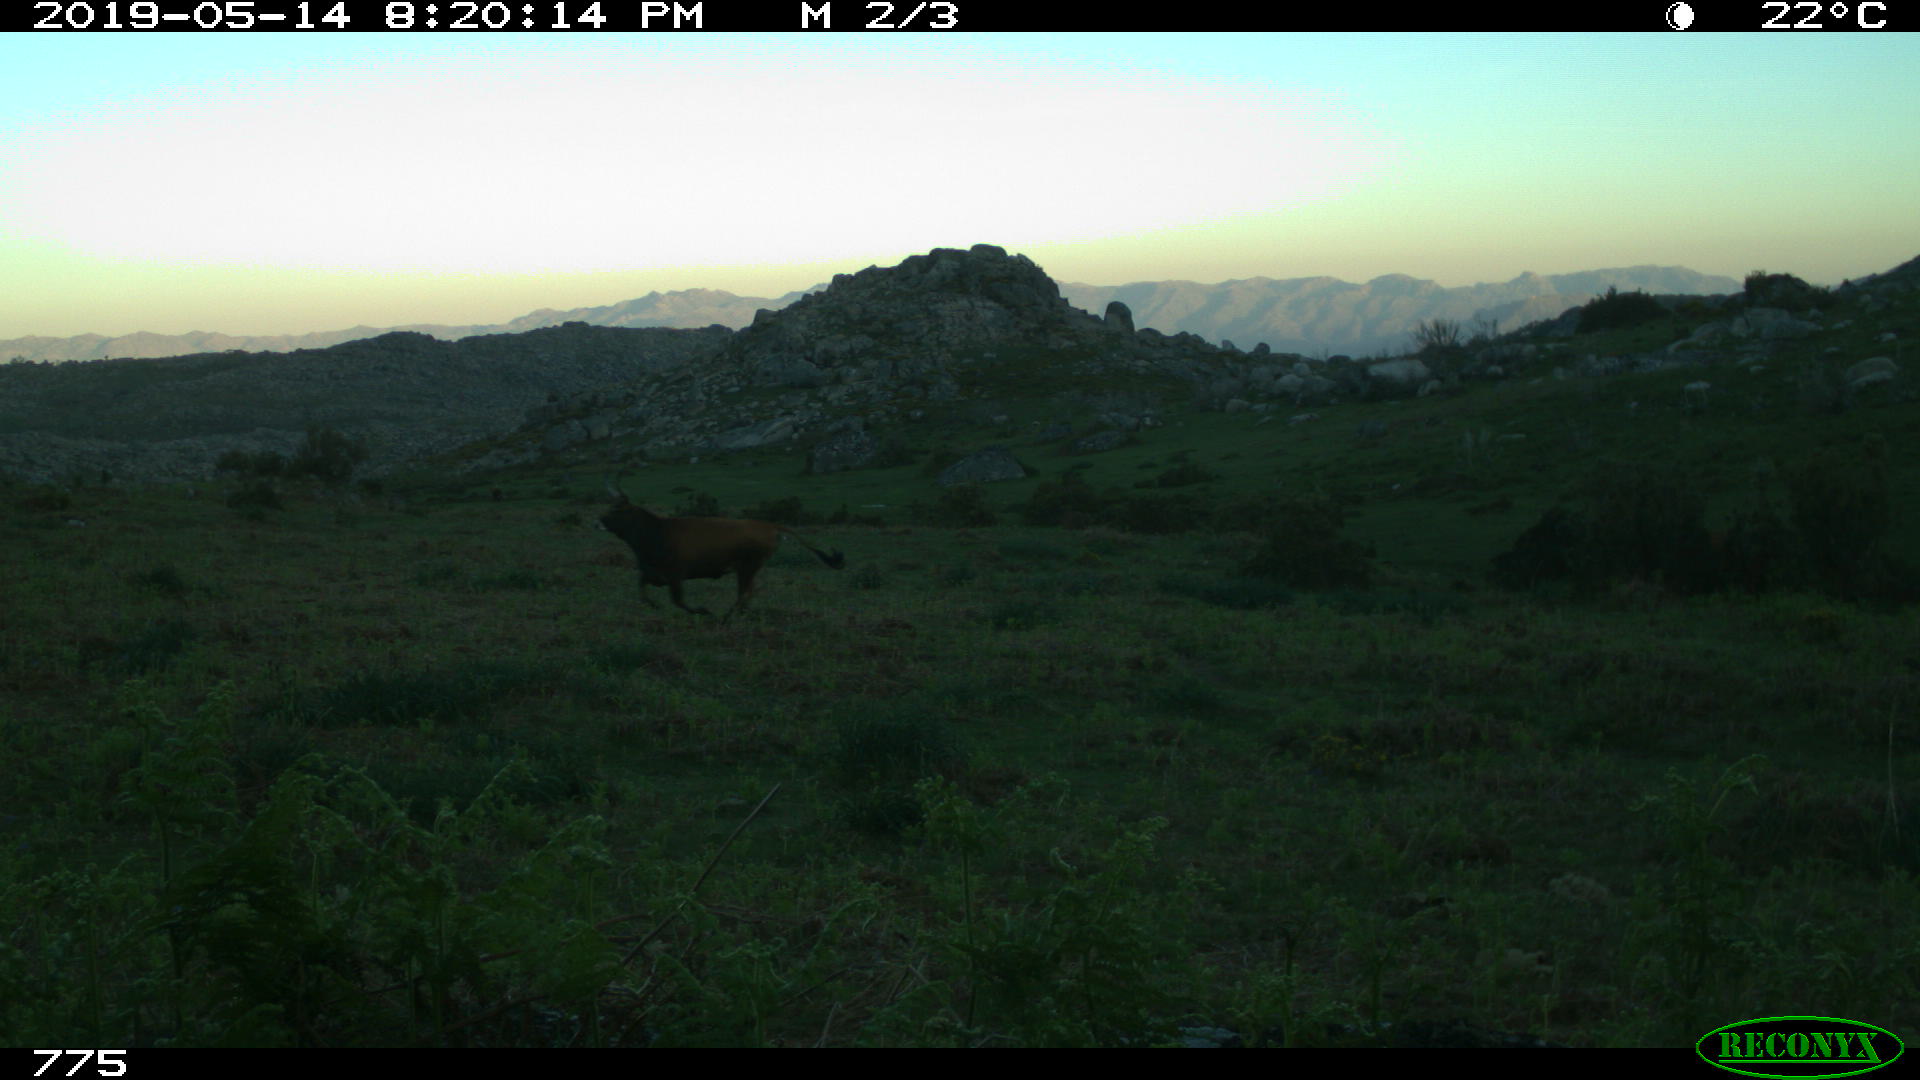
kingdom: Animalia
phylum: Chordata
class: Mammalia
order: Artiodactyla
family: Bovidae
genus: Bos
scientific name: Bos taurus
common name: Domesticated cattle
